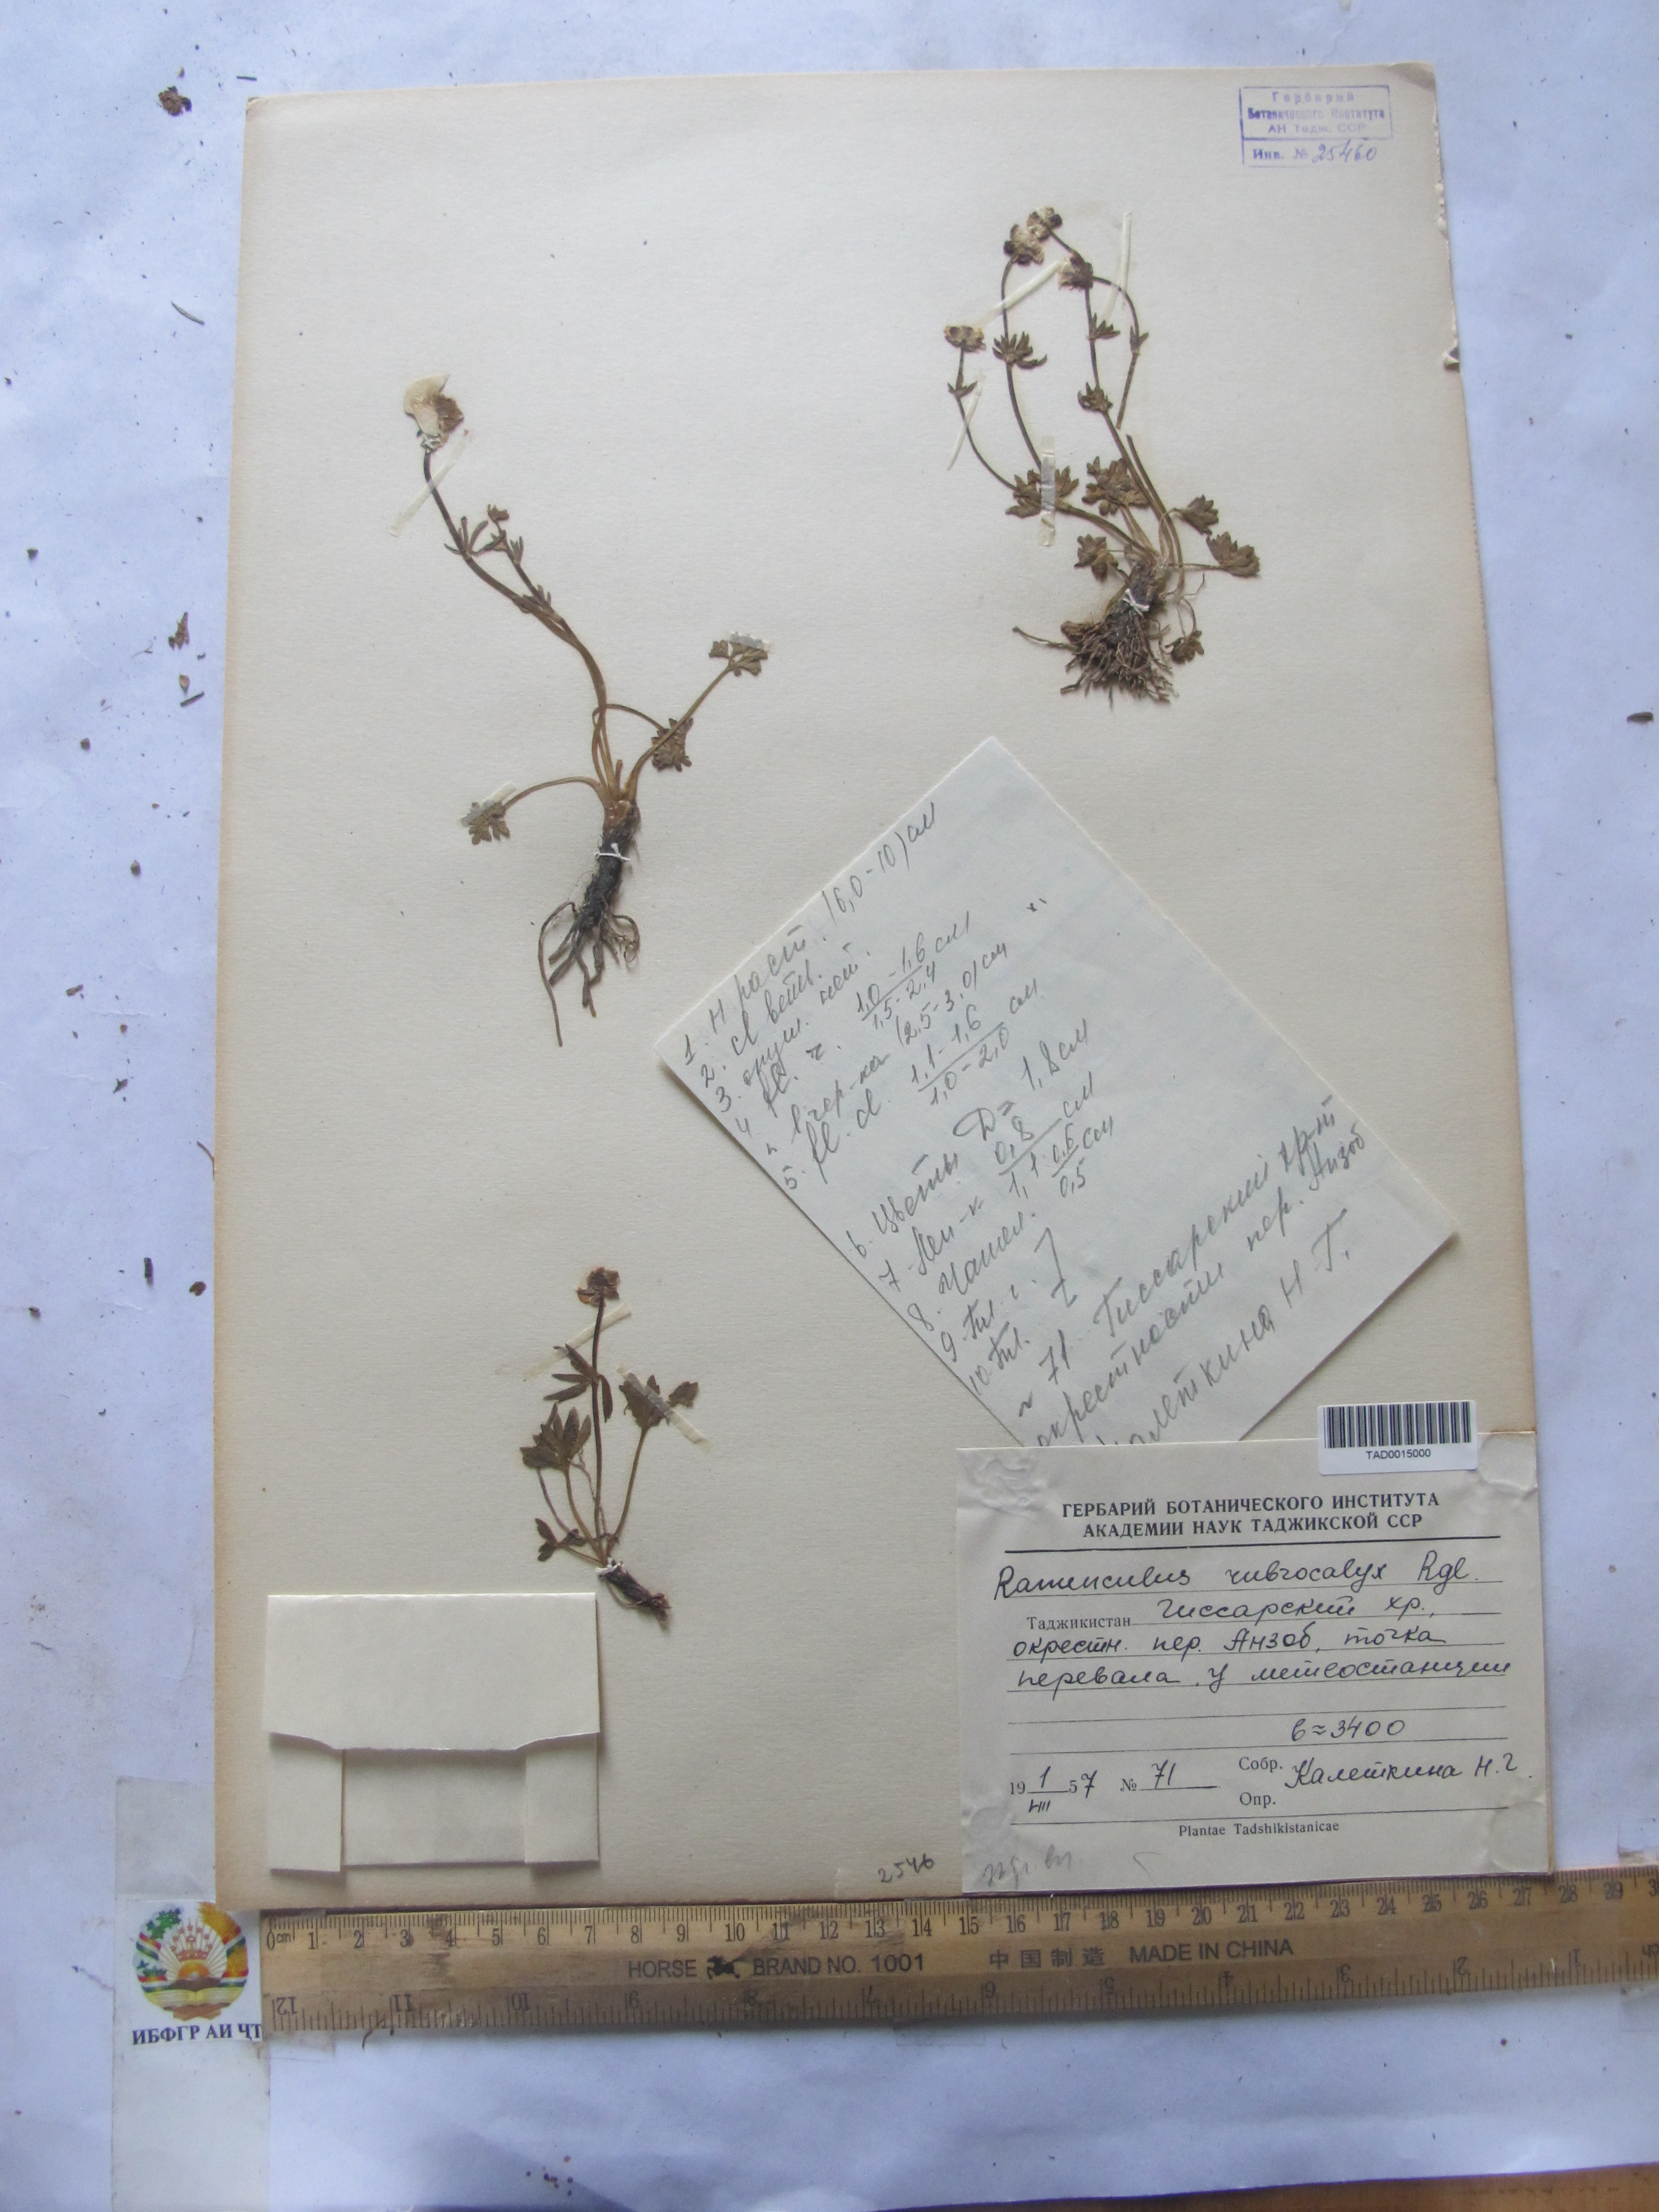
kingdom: Plantae
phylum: Tracheophyta
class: Magnoliopsida
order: Ranunculales
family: Ranunculaceae
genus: Ranunculus
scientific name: Ranunculus rubrocalyx
